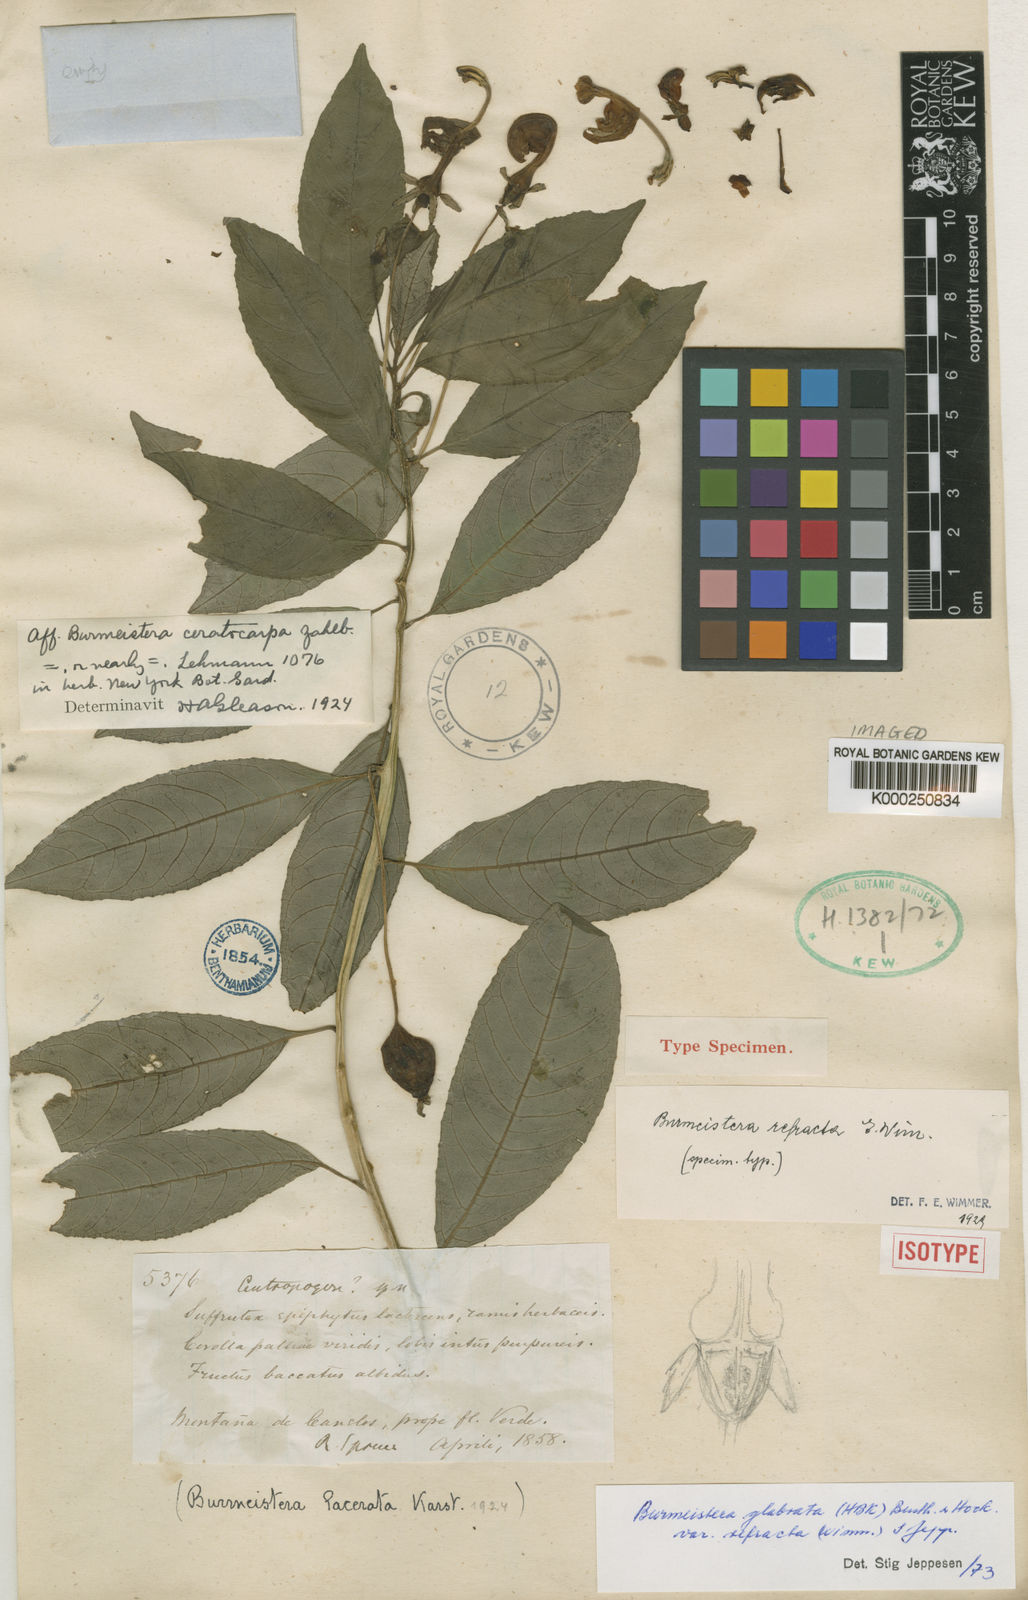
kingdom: Plantae
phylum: Tracheophyta
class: Magnoliopsida
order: Asterales
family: Campanulaceae
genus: Burmeistera
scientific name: Burmeistera refracta
